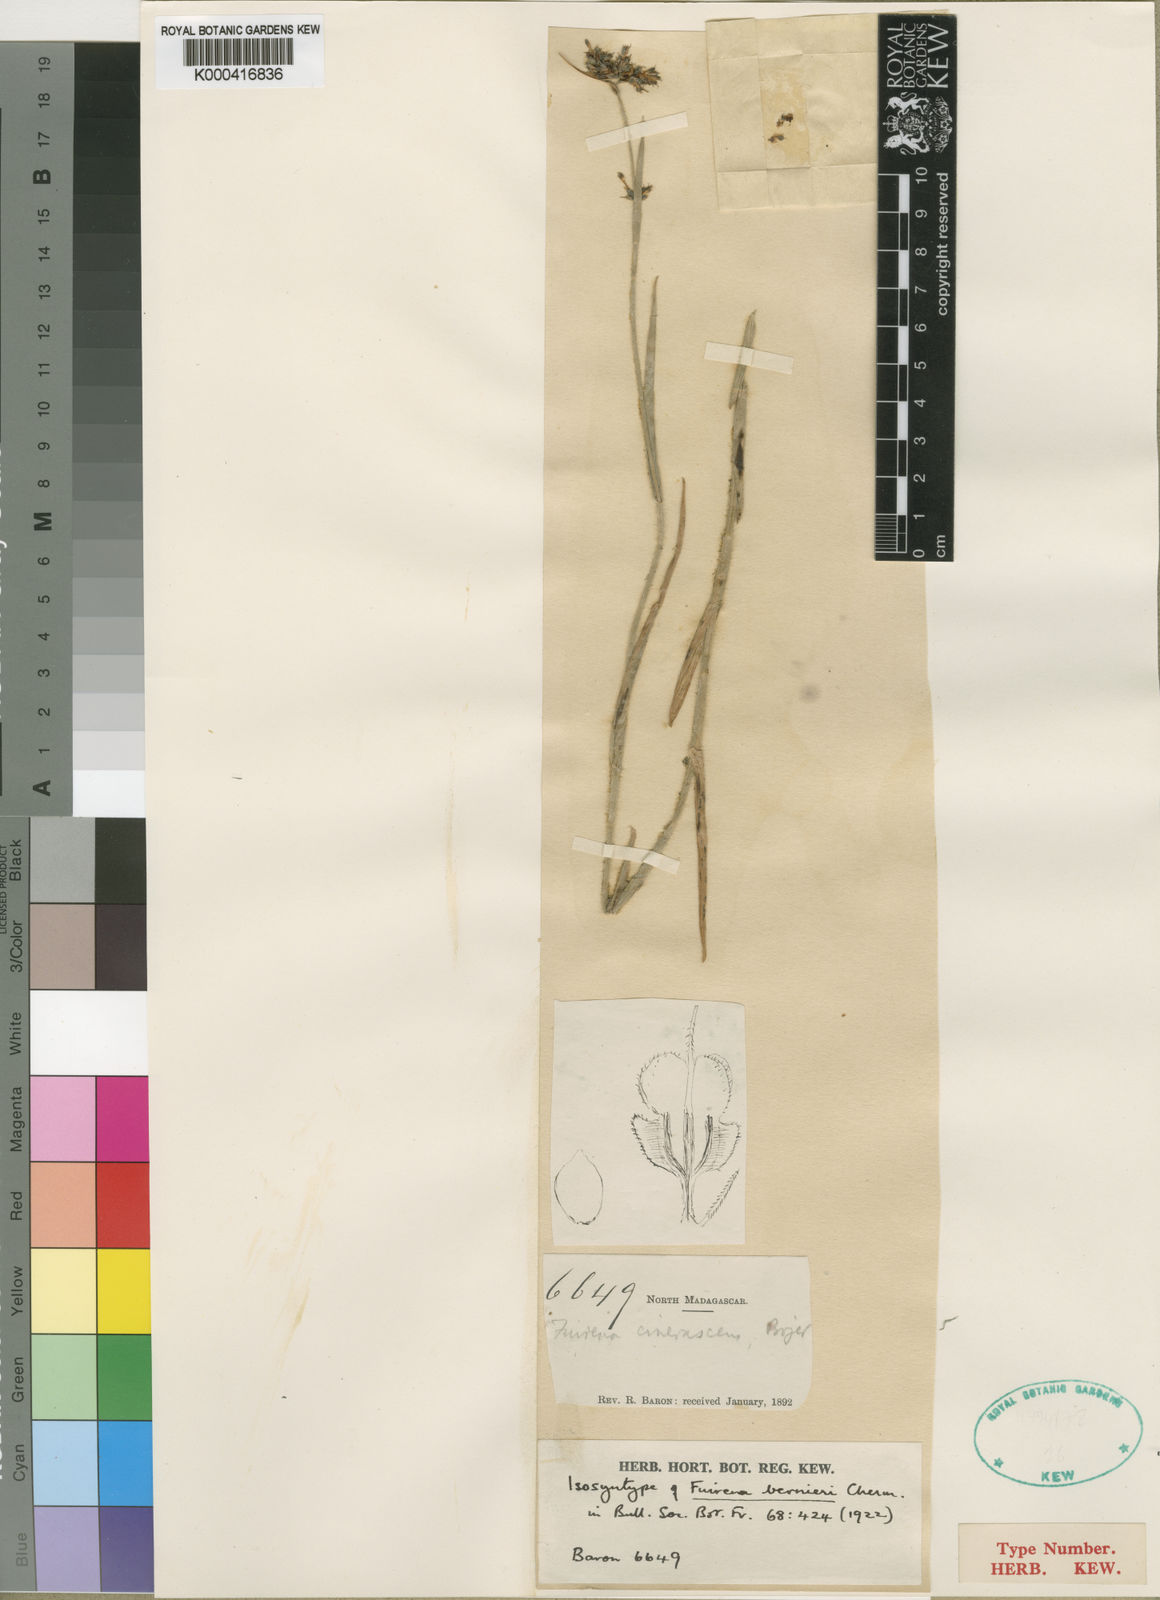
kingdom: Plantae
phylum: Tracheophyta
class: Liliopsida
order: Poales
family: Cyperaceae
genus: Fuirena
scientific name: Fuirena bernieri
